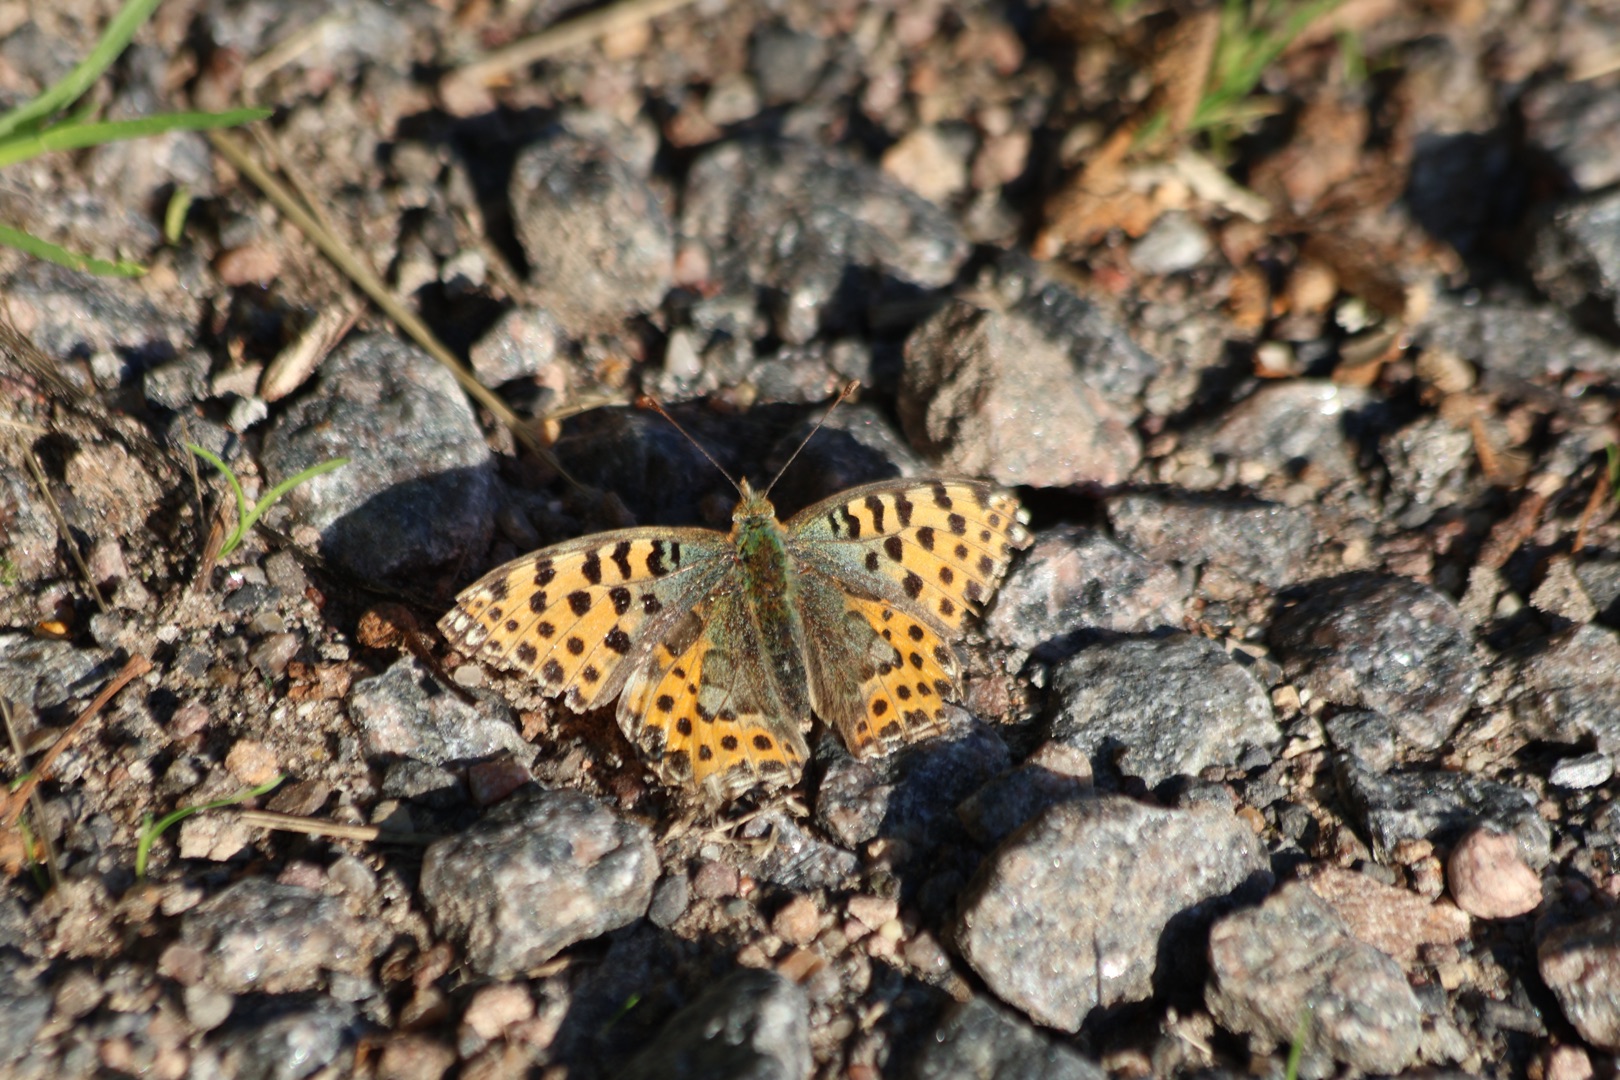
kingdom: Animalia
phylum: Arthropoda
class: Insecta
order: Lepidoptera
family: Nymphalidae
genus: Issoria
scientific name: Issoria lathonia
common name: Storplettet perlemorsommerfugl
